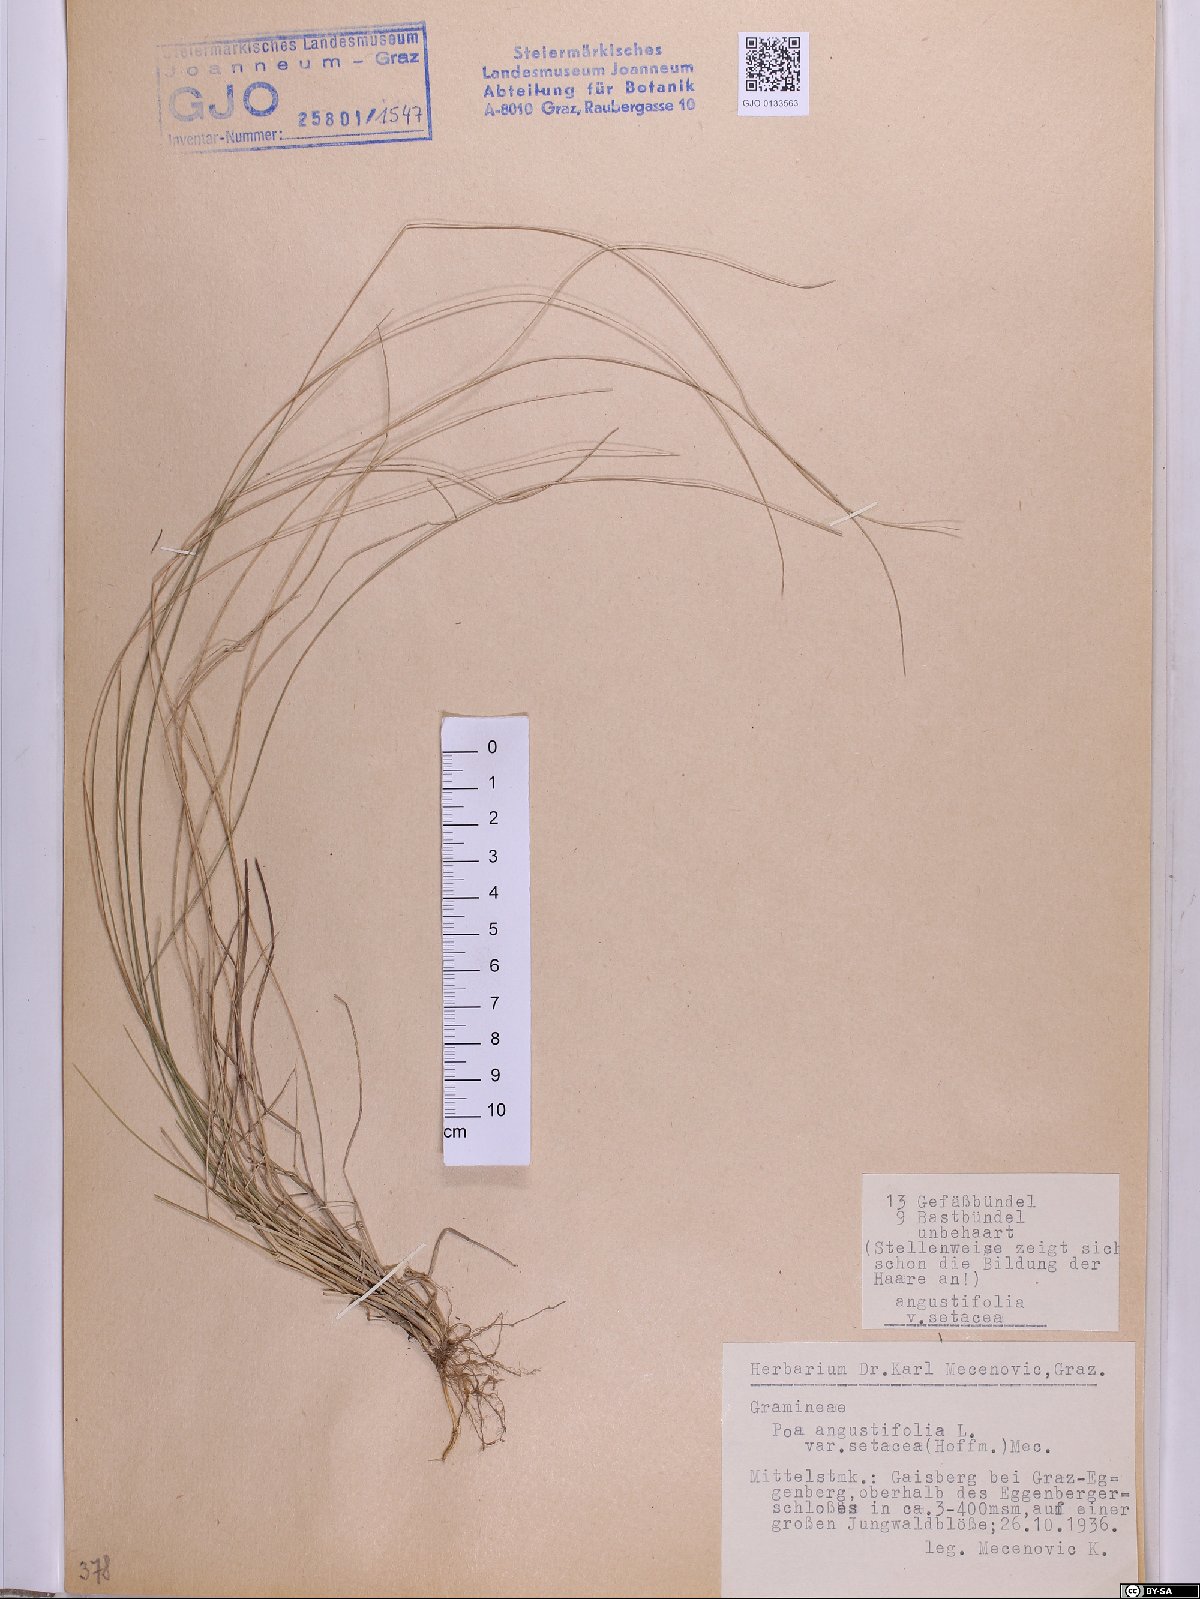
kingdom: Plantae
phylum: Tracheophyta
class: Liliopsida
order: Poales
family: Poaceae
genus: Poa
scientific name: Poa angustifolia
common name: Narrow-leaved meadow-grass
